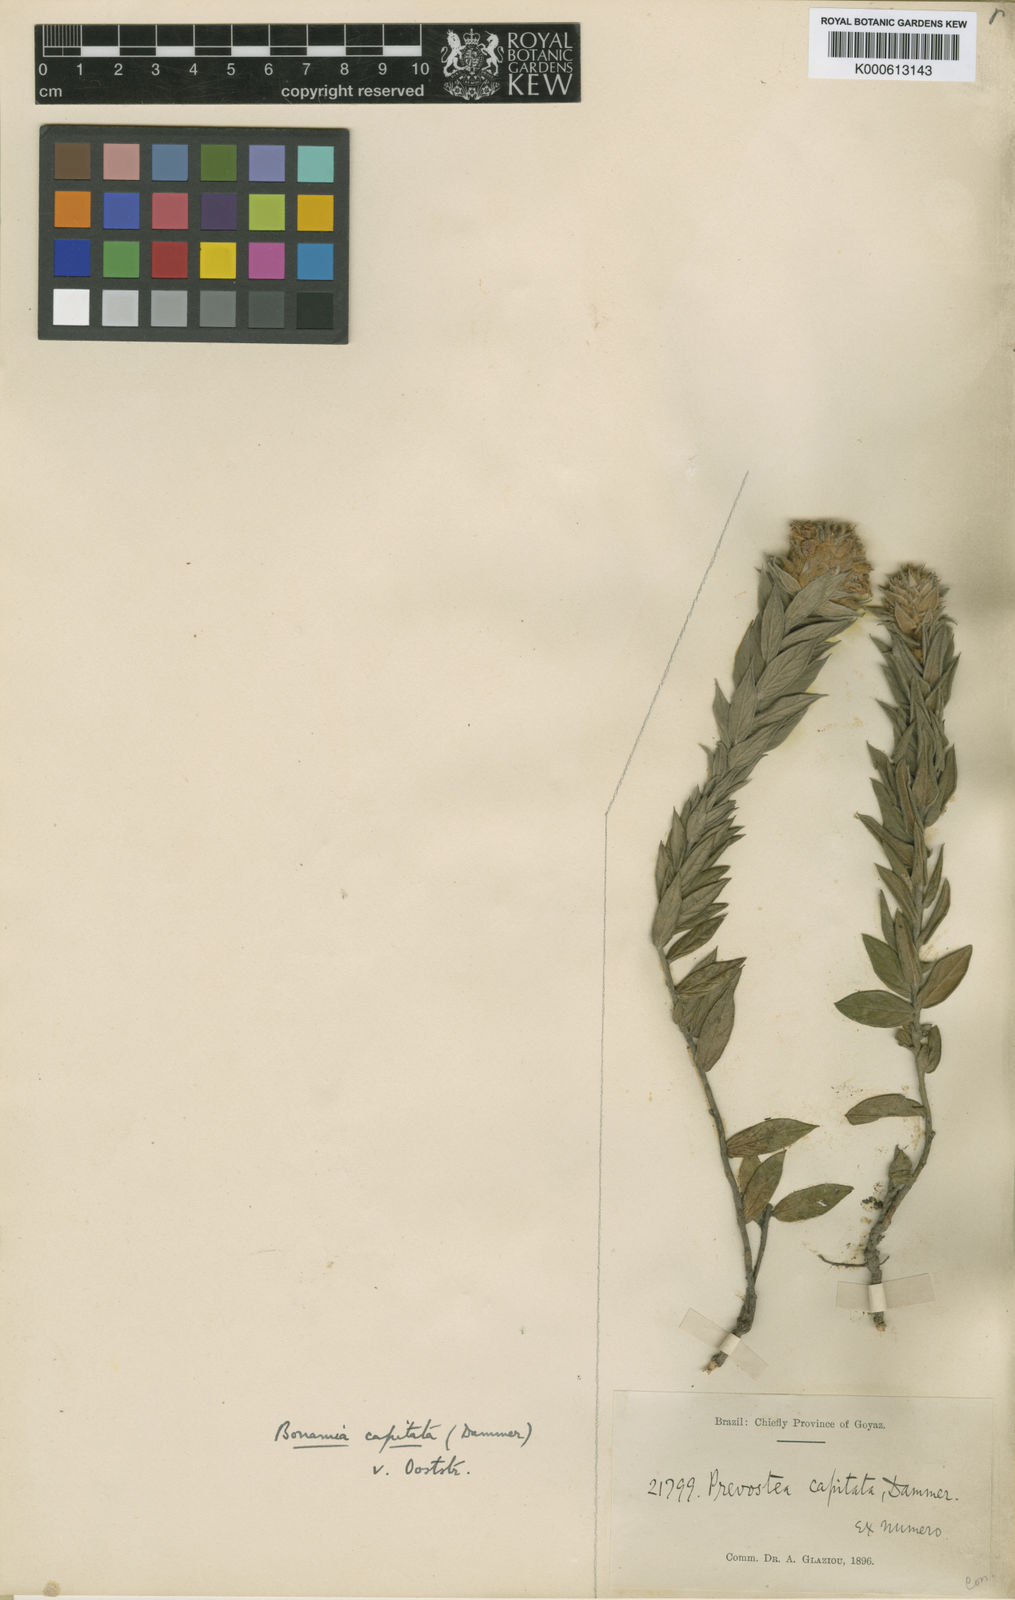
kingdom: Plantae
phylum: Tracheophyta
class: Magnoliopsida
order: Solanales
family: Convolvulaceae
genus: Bonamia
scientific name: Bonamia capitata
